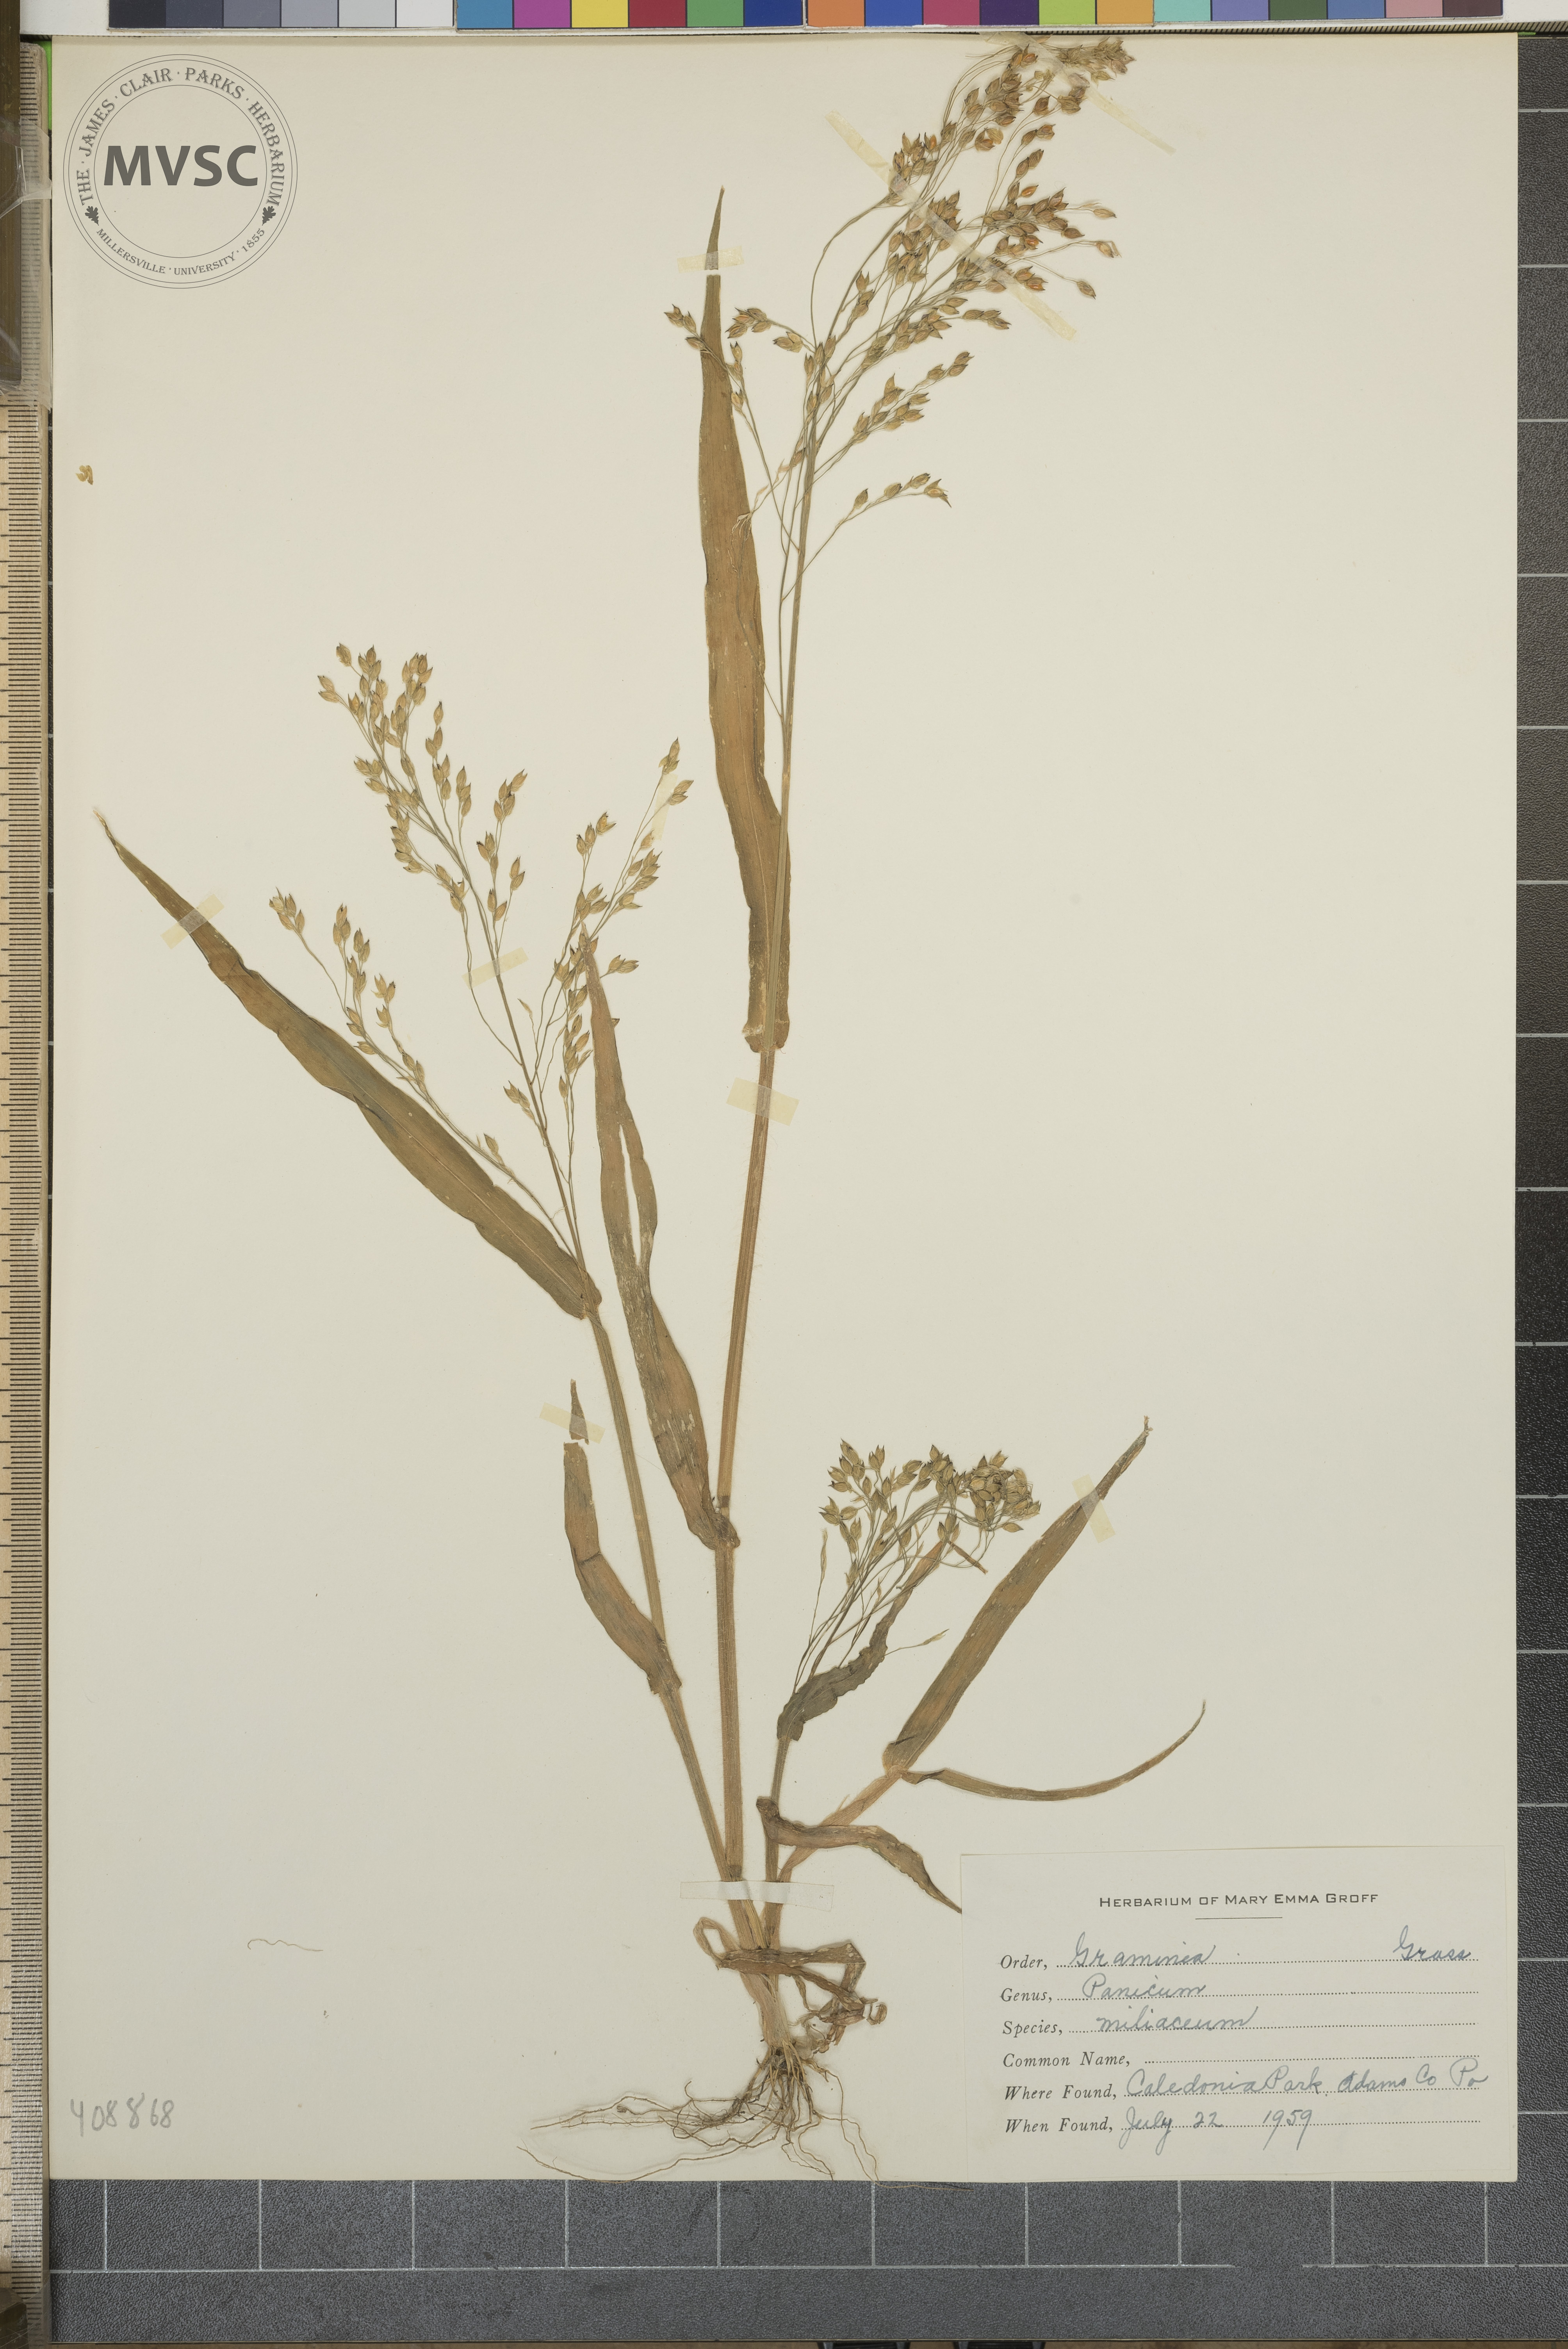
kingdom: Plantae
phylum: Tracheophyta
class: Liliopsida
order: Poales
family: Poaceae
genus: Panicum
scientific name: Panicum miliaceum
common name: Common millet
